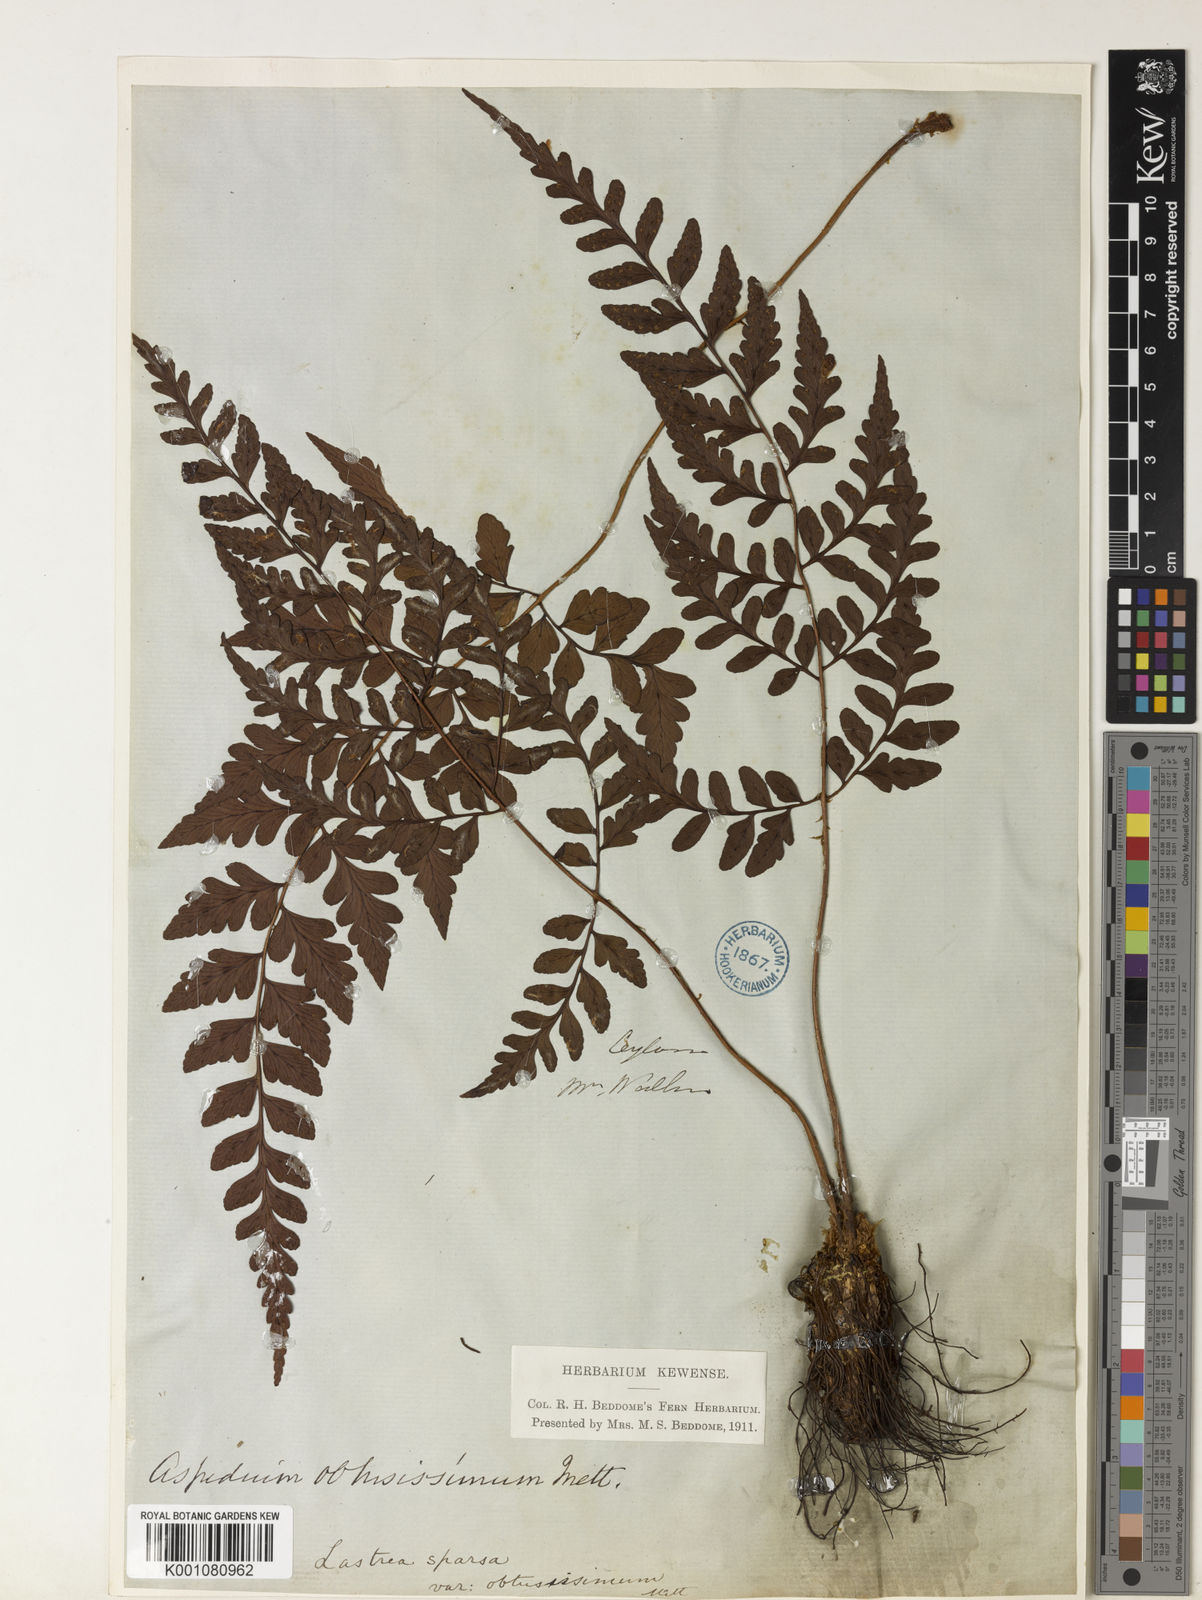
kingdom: Plantae
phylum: Tracheophyta
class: Polypodiopsida
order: Polypodiales
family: Dryopteridaceae
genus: Dryopteris
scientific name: Dryopteris
